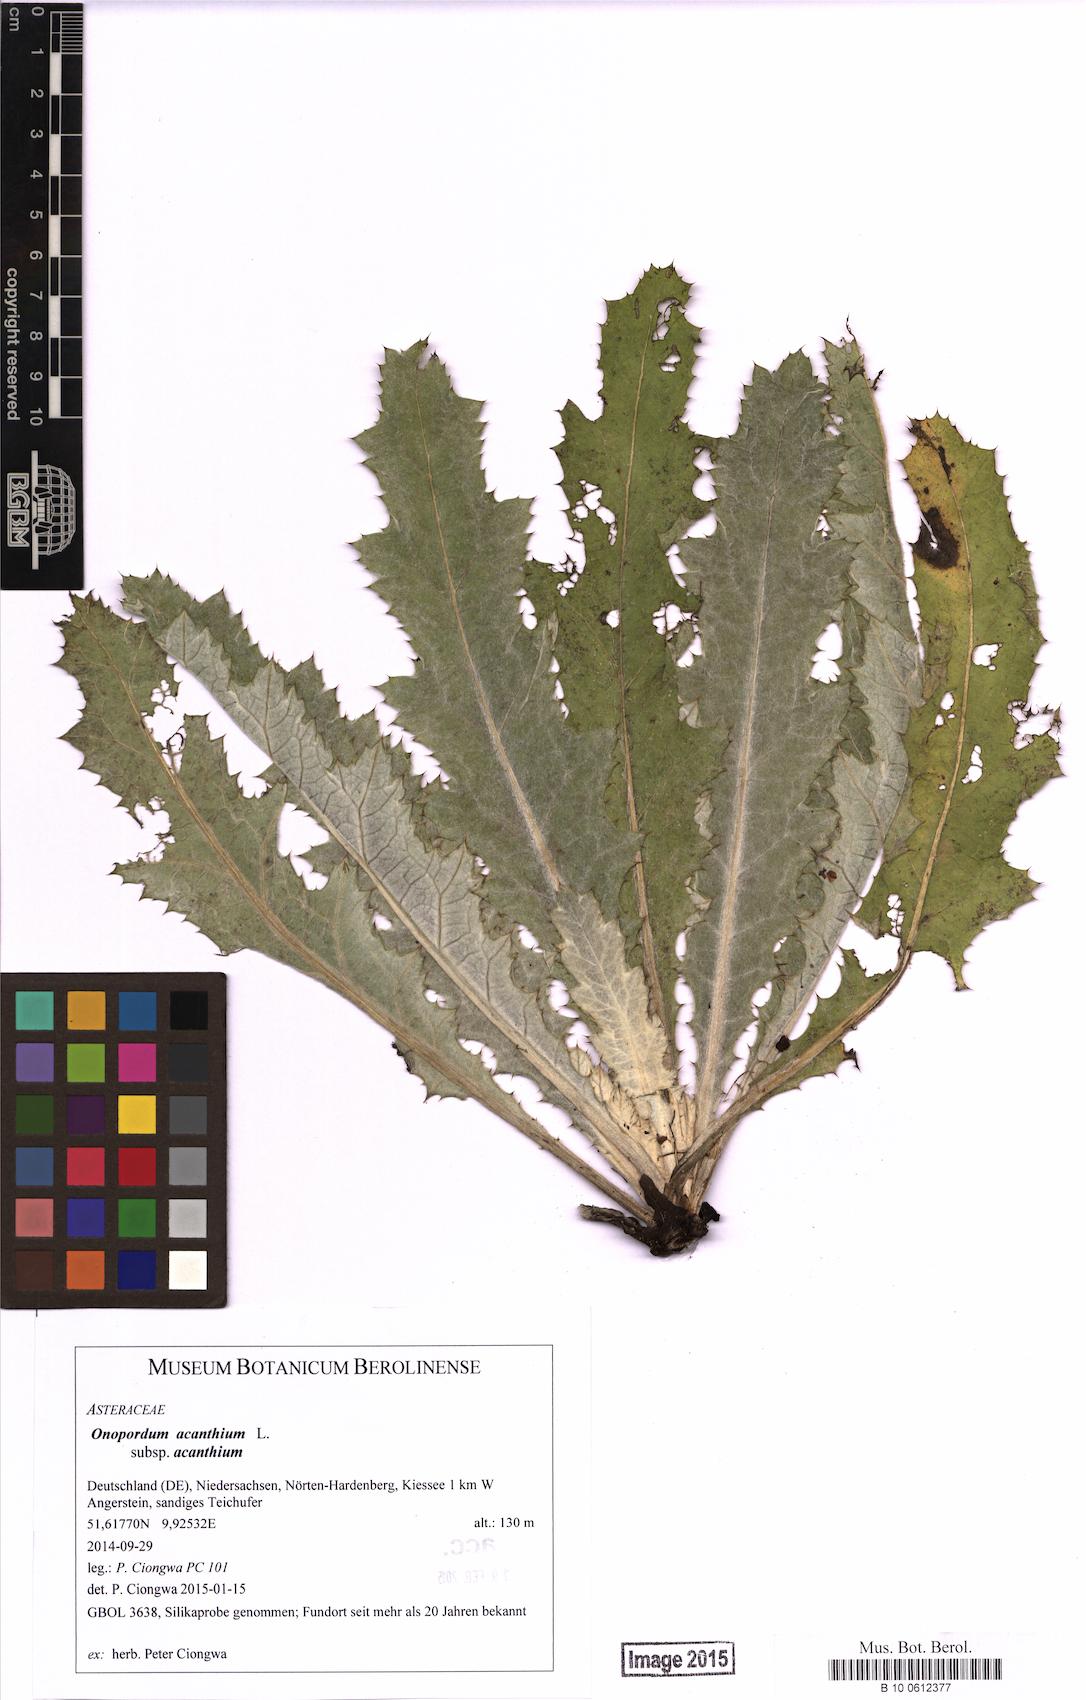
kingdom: Plantae
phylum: Tracheophyta
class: Magnoliopsida
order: Asterales
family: Asteraceae
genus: Onopordum
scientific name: Onopordum acanthium
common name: Scotch thistle
